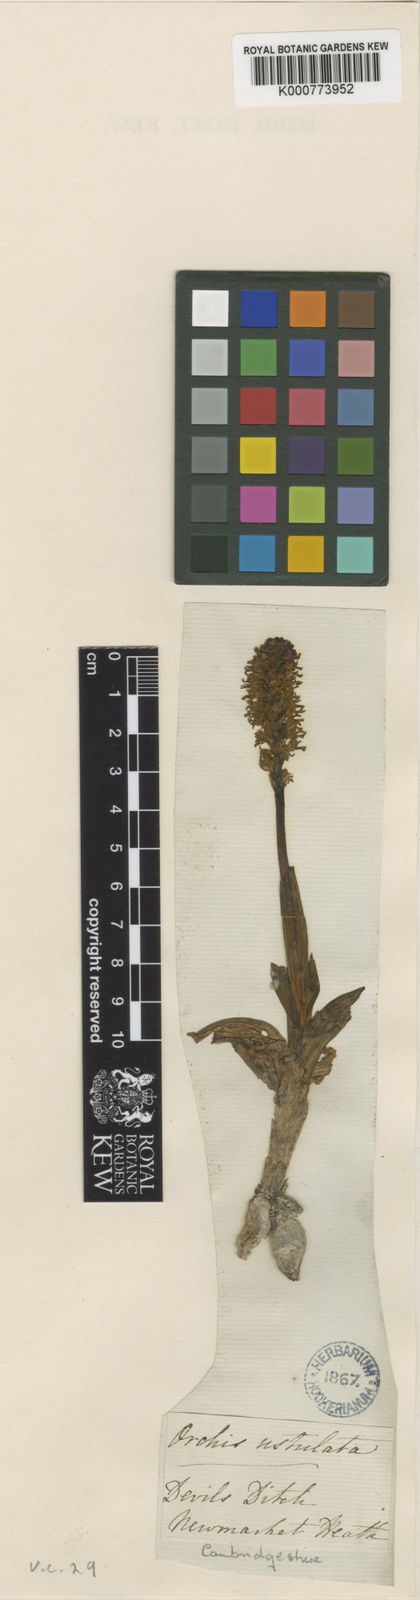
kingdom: Plantae
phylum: Tracheophyta
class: Liliopsida
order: Asparagales
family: Orchidaceae
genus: Neotinea
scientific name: Neotinea ustulata
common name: Burnt orchid
